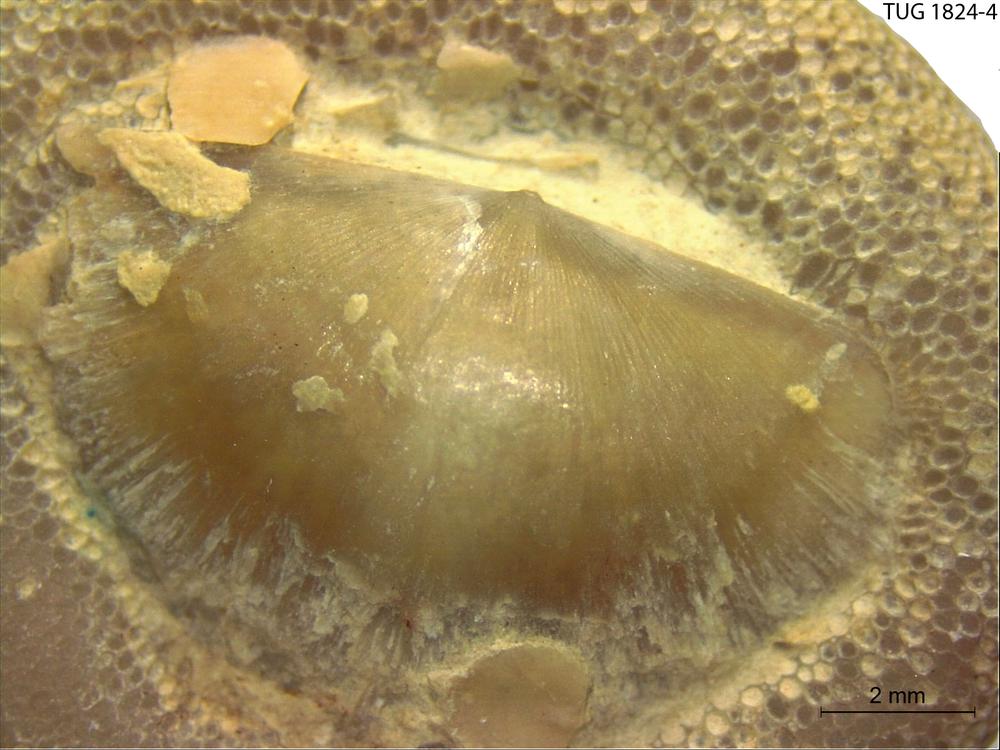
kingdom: Animalia
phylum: Bryozoa
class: Stenolaemata
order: Trepostomatida
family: Diplotrypidae
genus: Diplotrypa
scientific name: Diplotrypa
